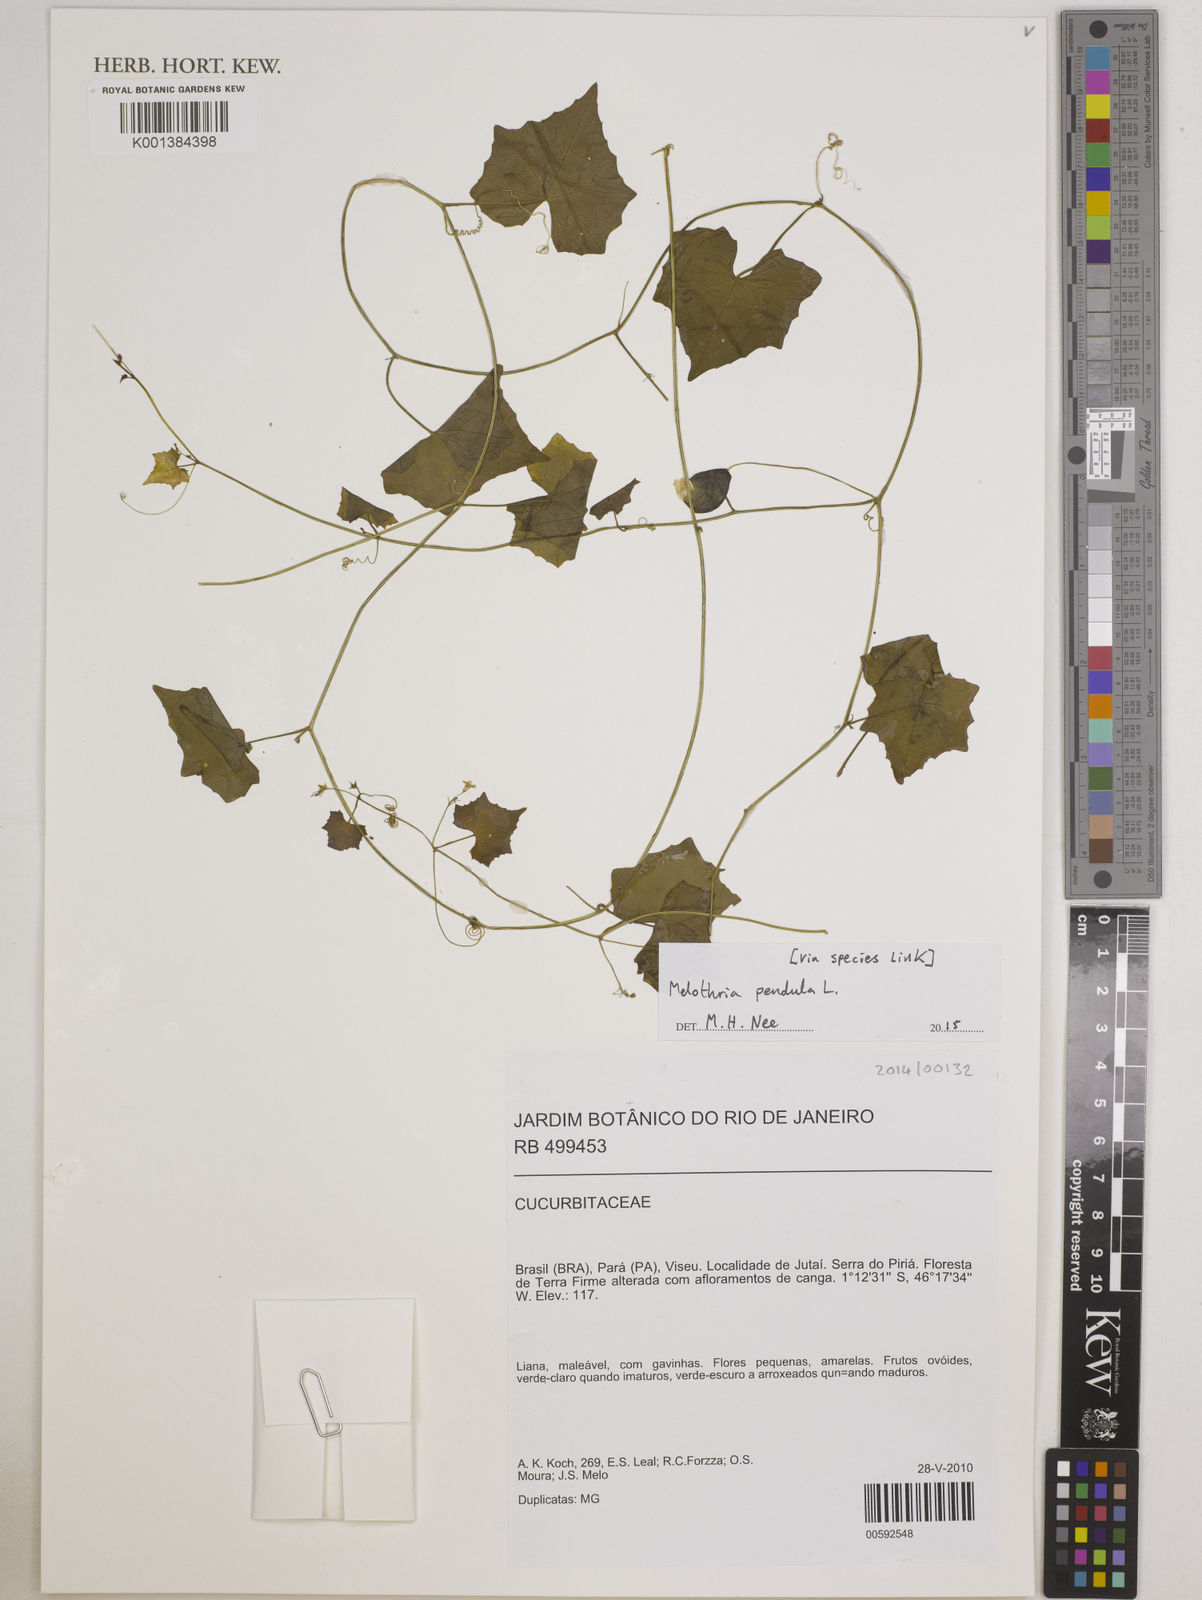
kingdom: Plantae
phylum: Tracheophyta
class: Magnoliopsida
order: Cucurbitales
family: Cucurbitaceae
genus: Melothria
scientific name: Melothria
